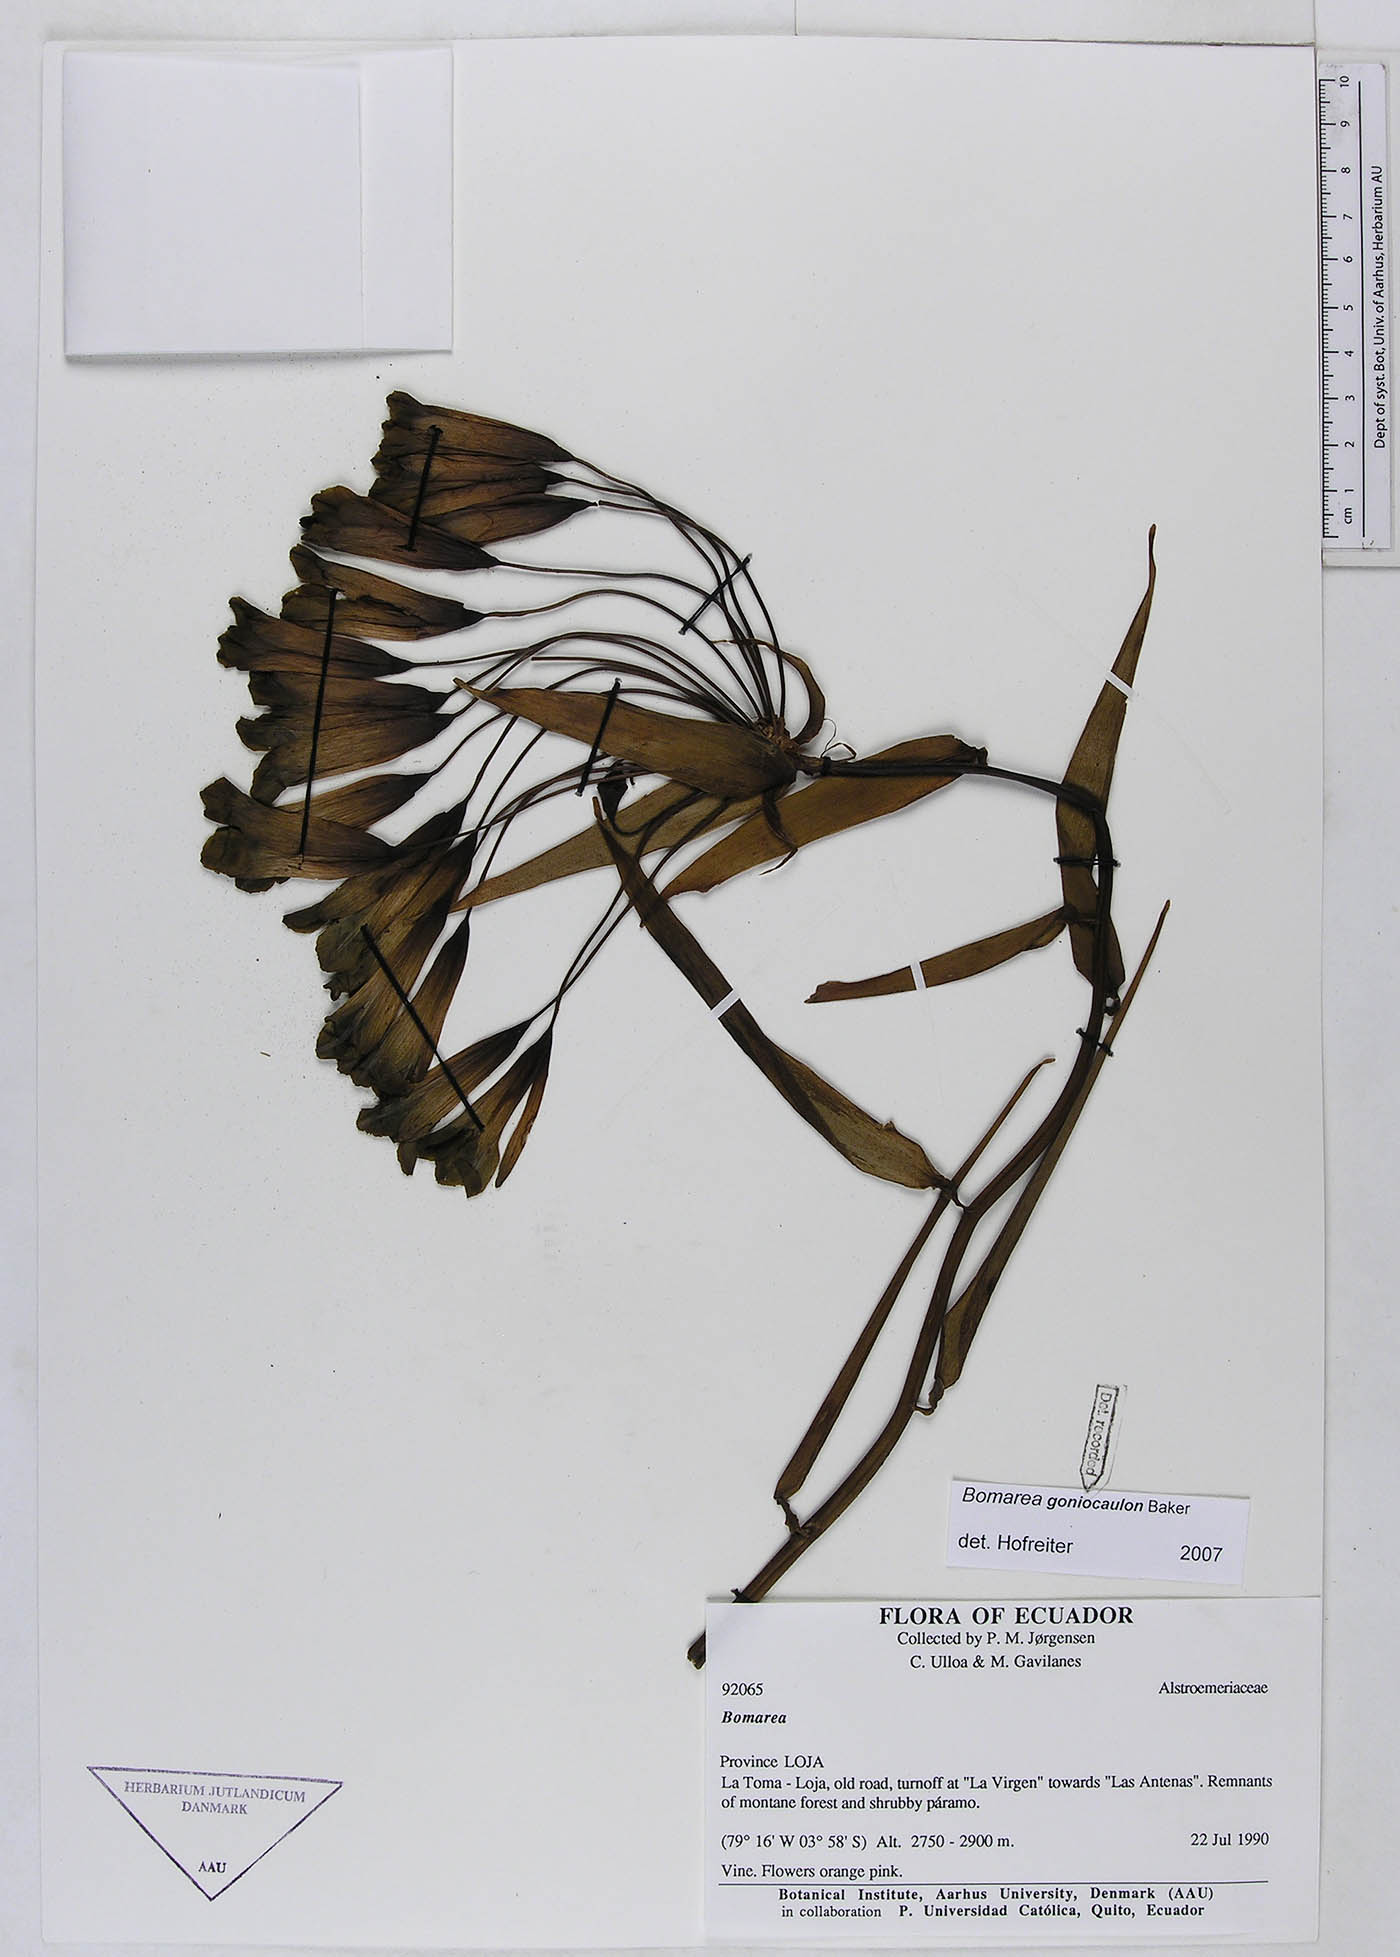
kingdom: Plantae
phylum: Tracheophyta
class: Liliopsida
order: Liliales
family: Alstroemeriaceae
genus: Bomarea
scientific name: Bomarea goniocaulon
